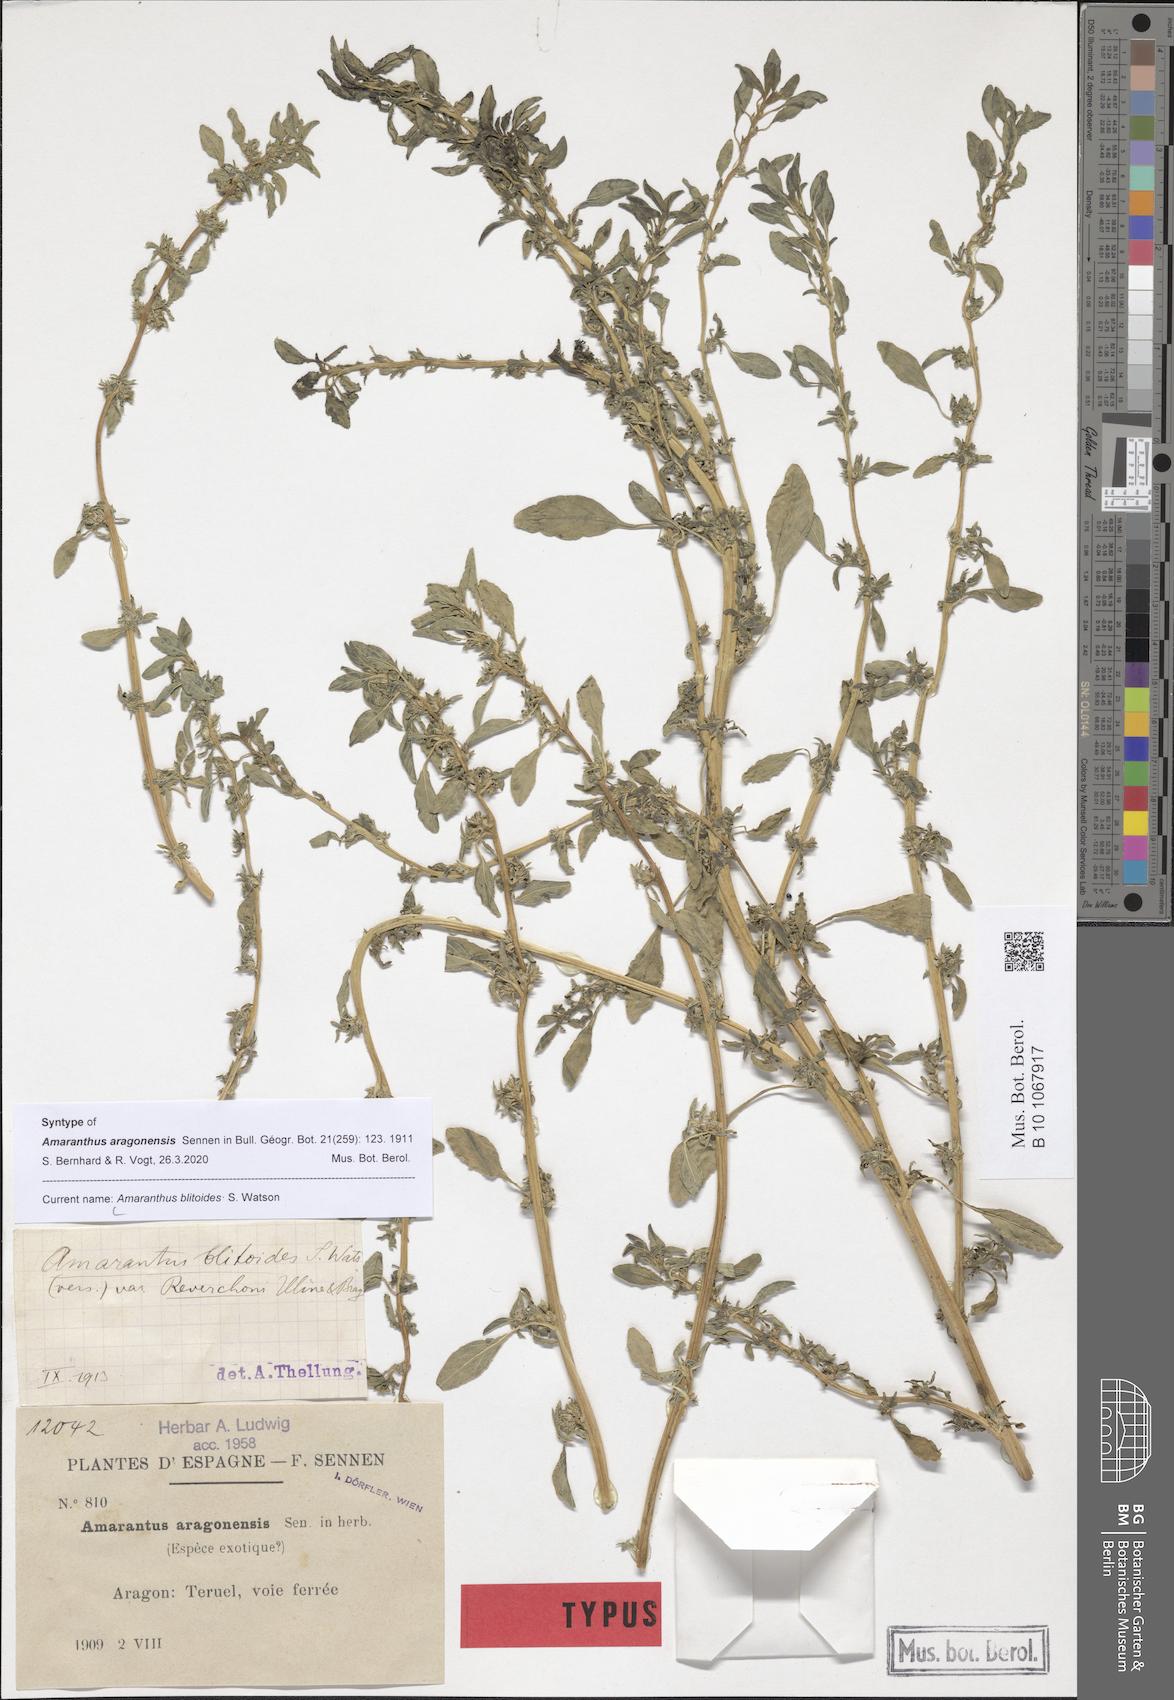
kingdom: Plantae
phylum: Tracheophyta
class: Magnoliopsida
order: Caryophyllales
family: Amaranthaceae
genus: Amaranthus
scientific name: Amaranthus blitoides
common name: Prostrate pigweed
